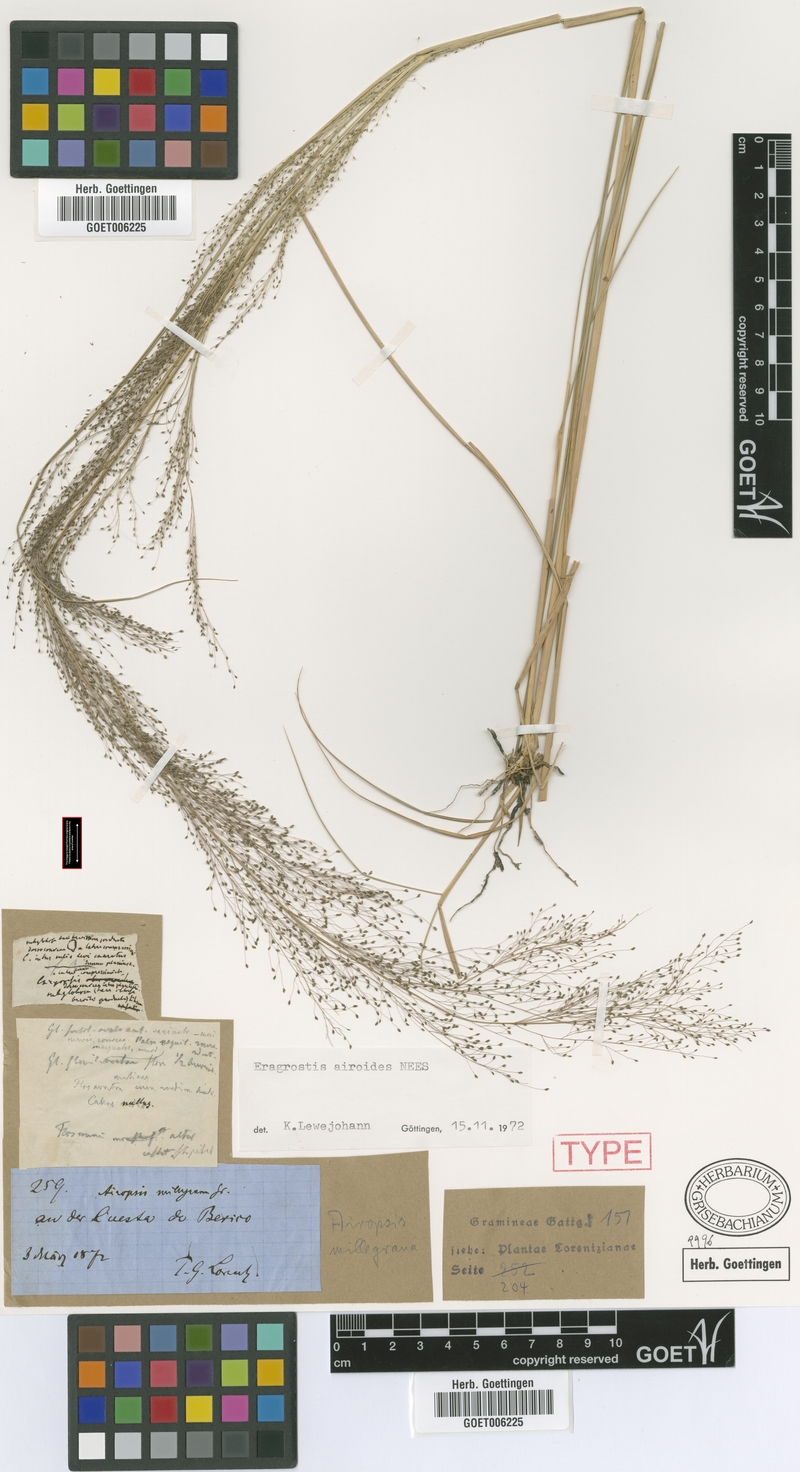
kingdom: Plantae
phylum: Tracheophyta
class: Liliopsida
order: Poales
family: Poaceae
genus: Eragrostis
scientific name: Eragrostis airoides
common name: Darnel lovegrass
